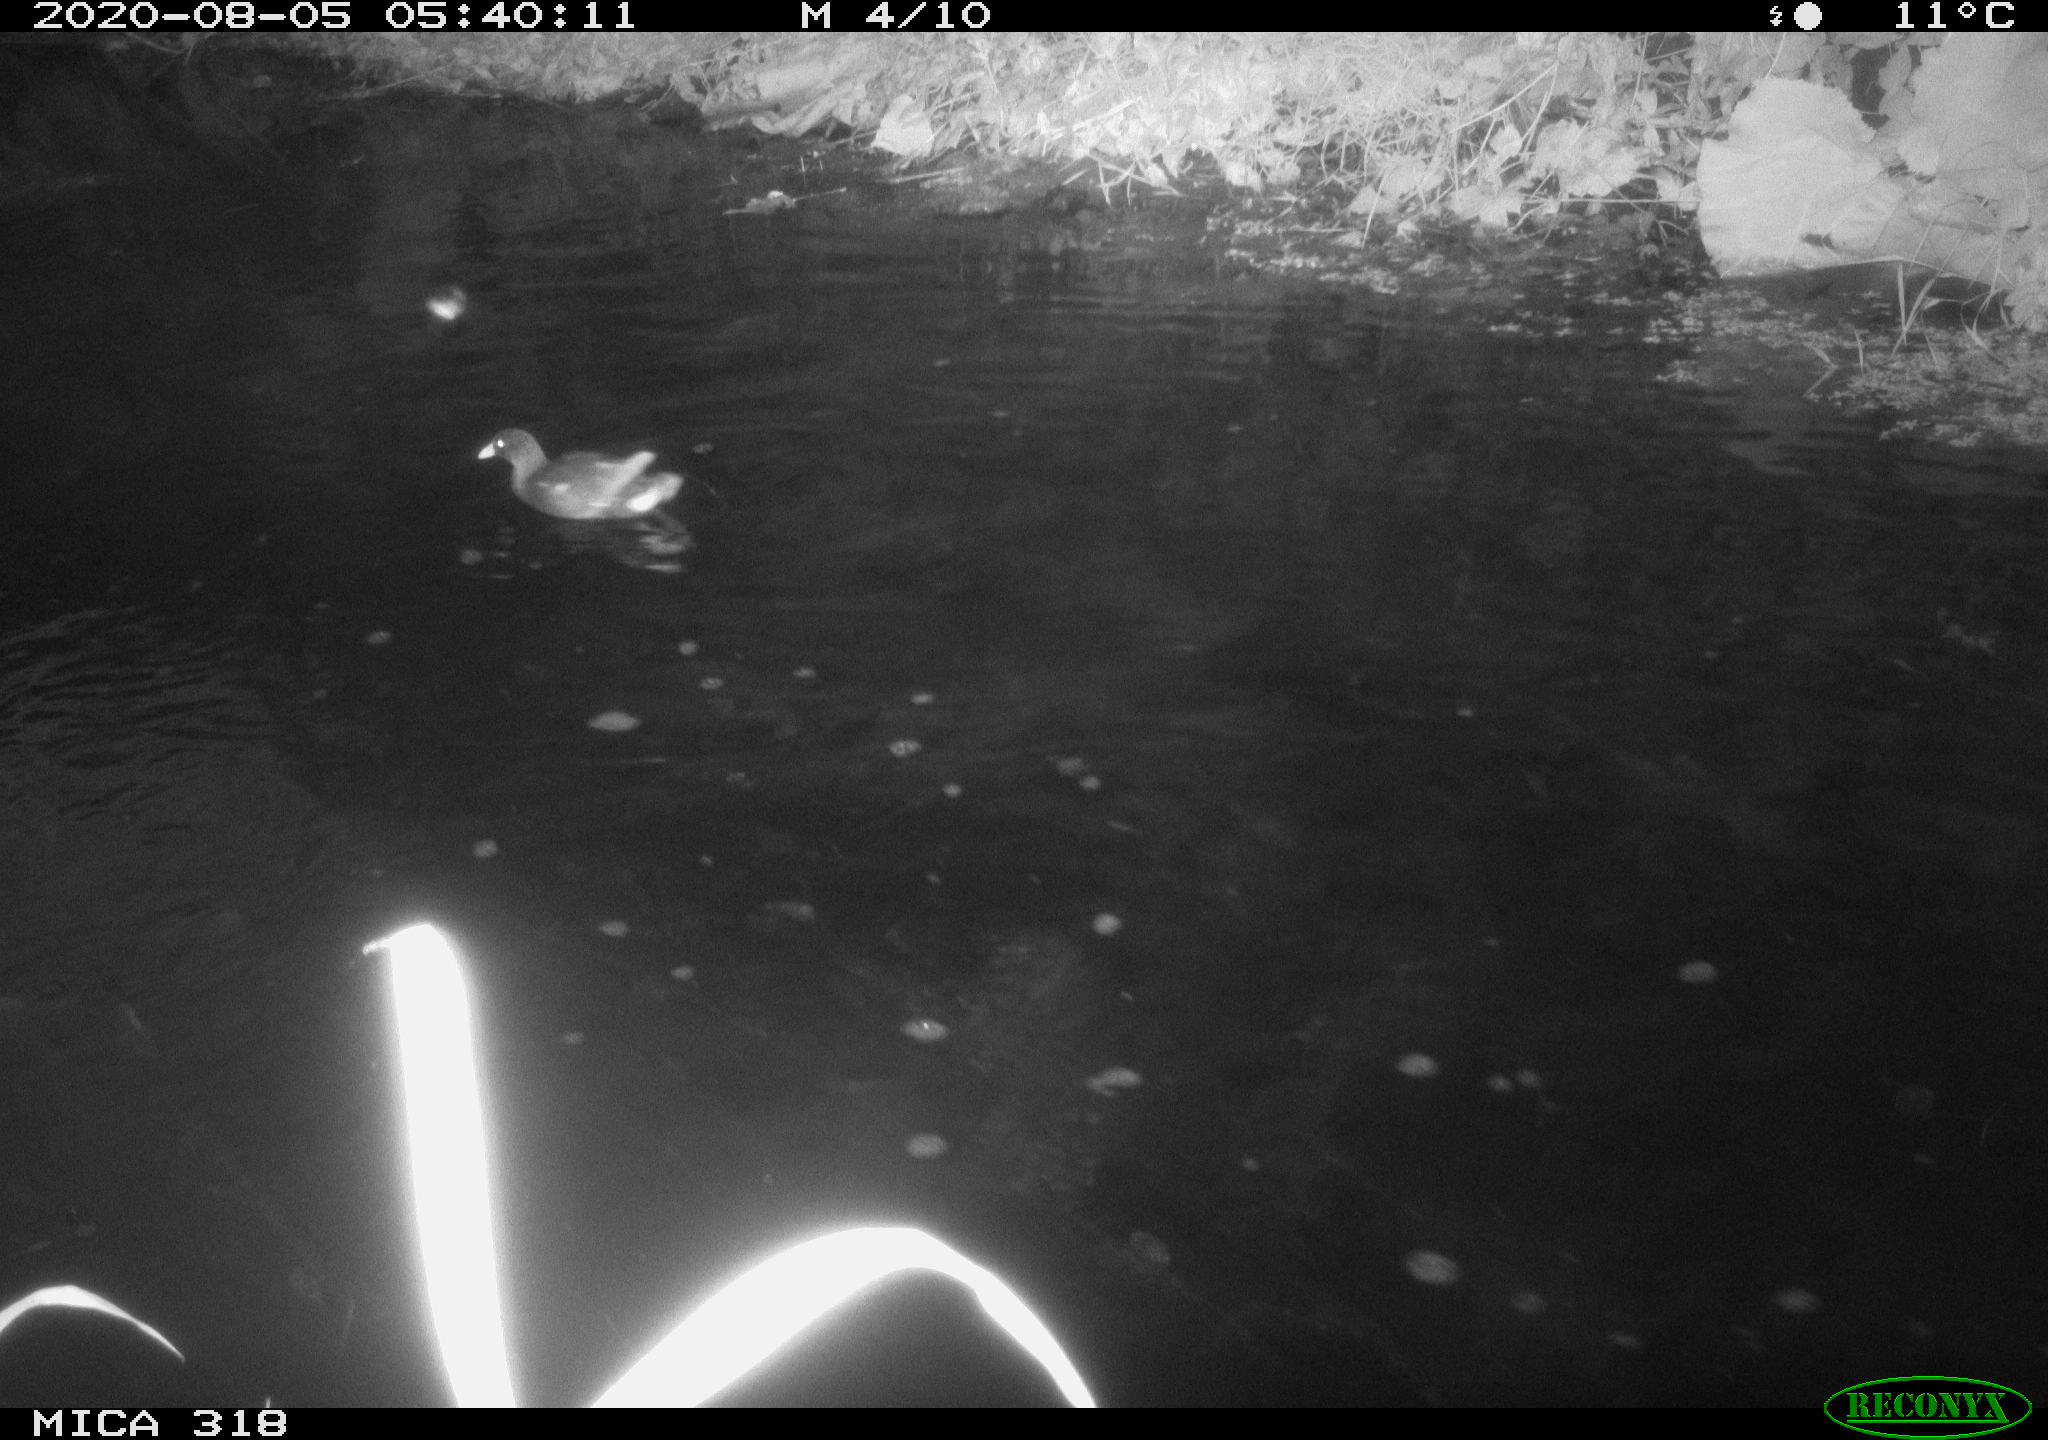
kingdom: Animalia
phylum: Chordata
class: Aves
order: Gruiformes
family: Rallidae
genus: Gallinula
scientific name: Gallinula chloropus
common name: Common moorhen
